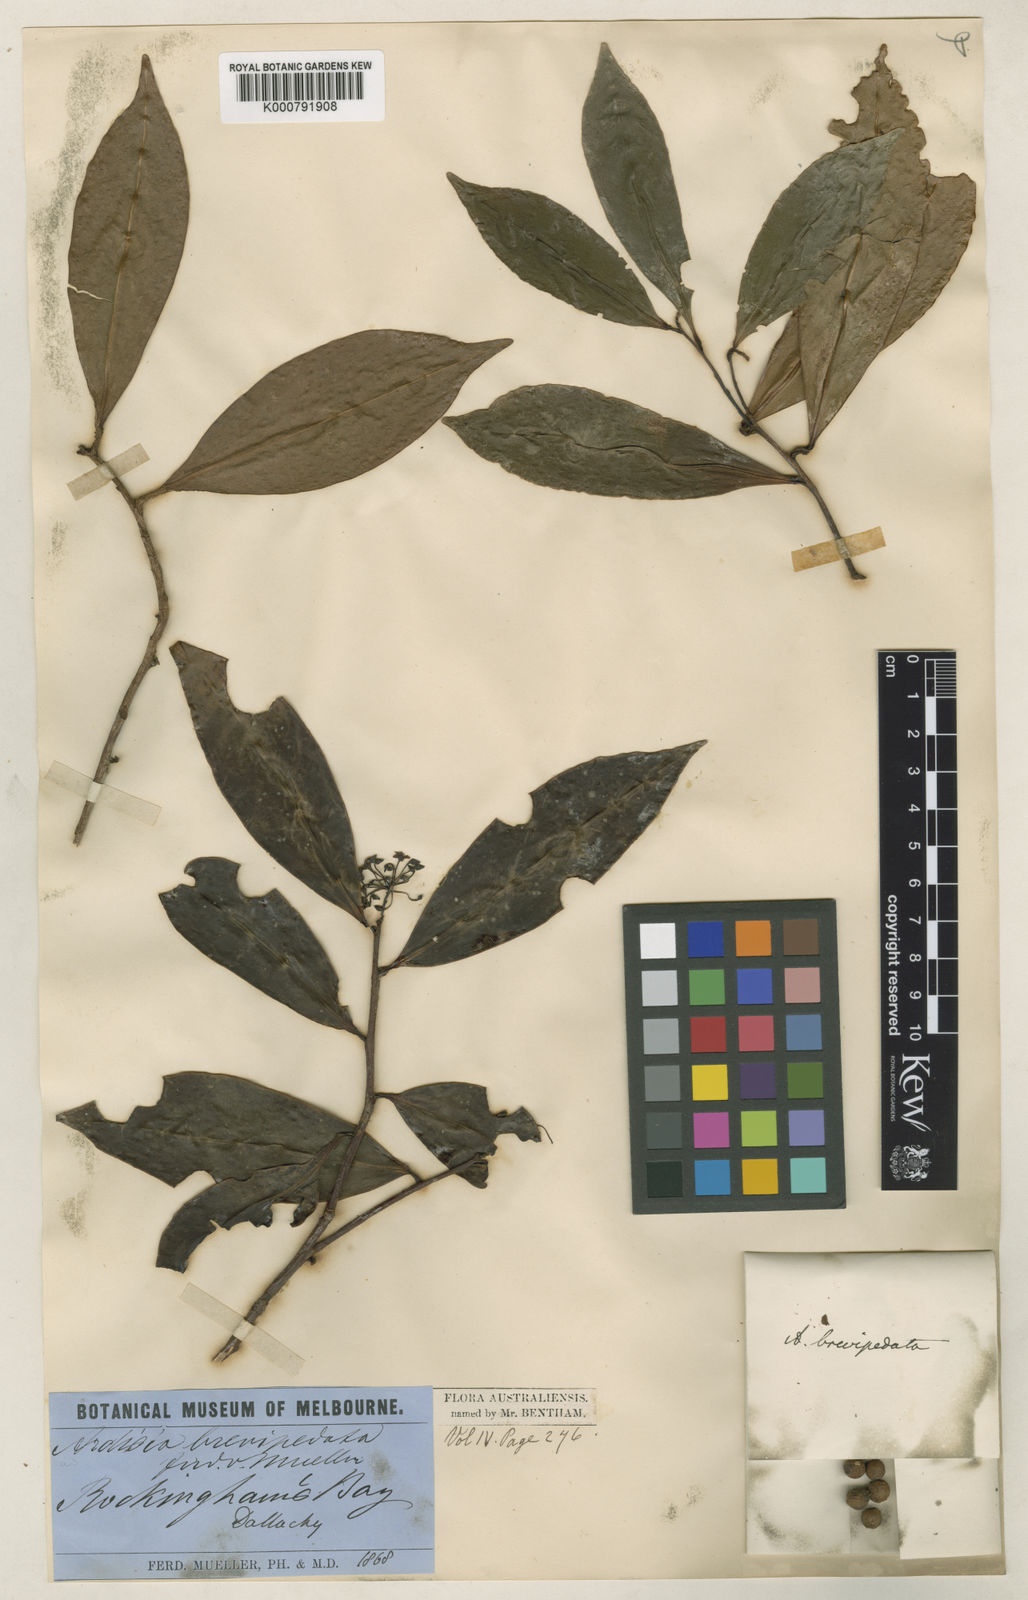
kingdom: Plantae
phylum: Tracheophyta
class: Magnoliopsida
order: Ericales
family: Primulaceae
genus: Ardisia
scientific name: Ardisia brevipedata
